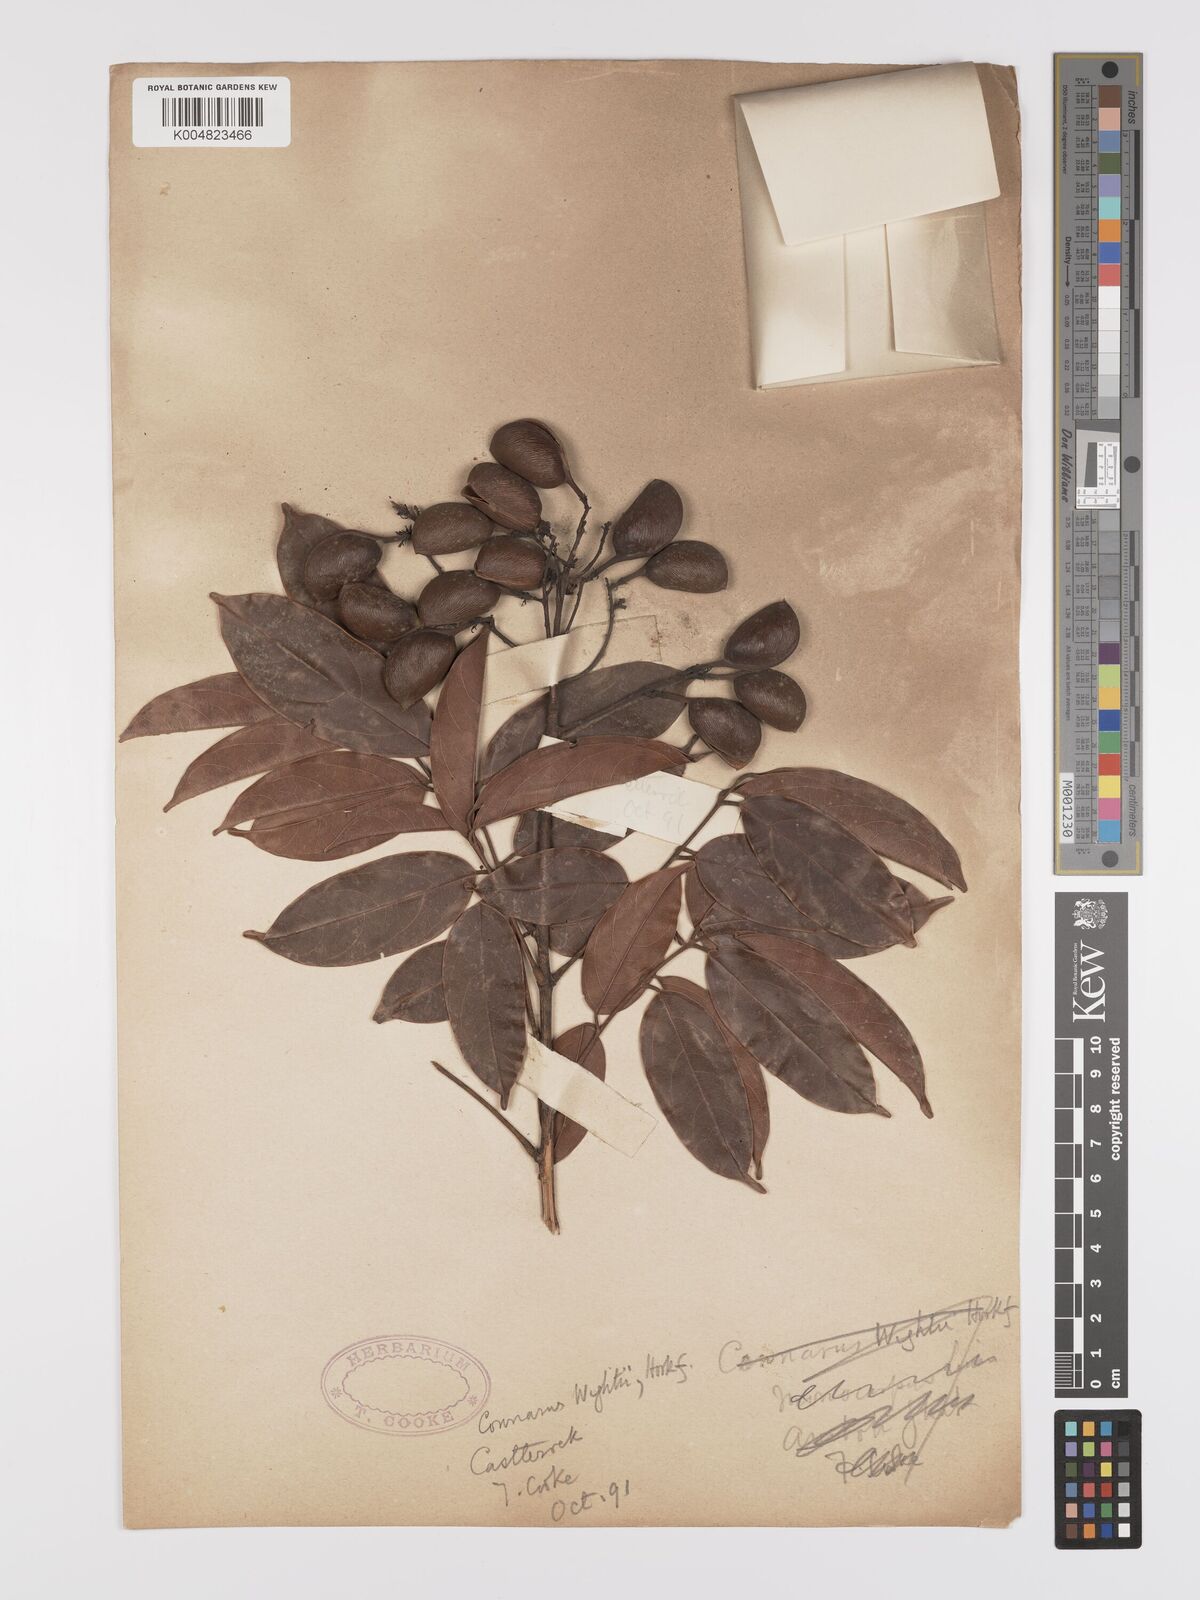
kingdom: Plantae
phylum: Tracheophyta
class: Magnoliopsida
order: Oxalidales
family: Connaraceae
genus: Connarus
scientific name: Connarus wightii
